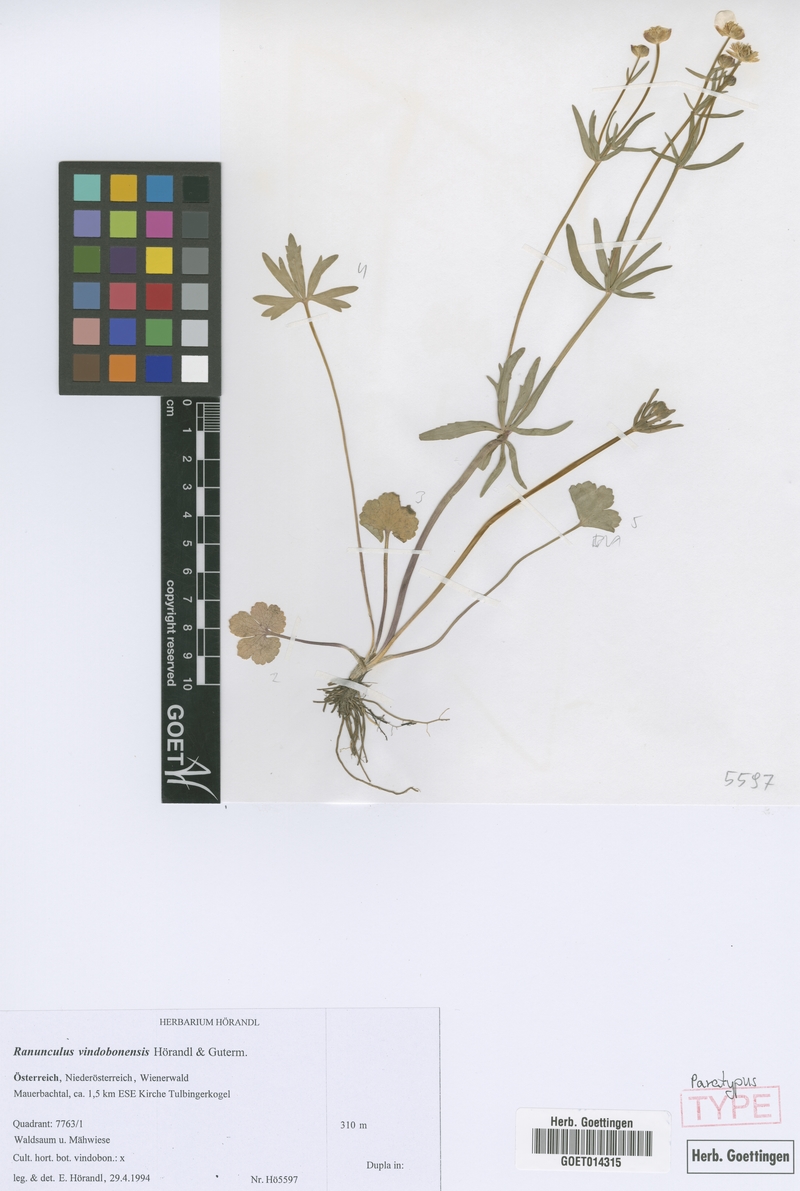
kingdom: Plantae
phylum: Tracheophyta
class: Magnoliopsida
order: Ranunculales
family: Ranunculaceae
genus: Ranunculus
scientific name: Ranunculus vindobonensis
